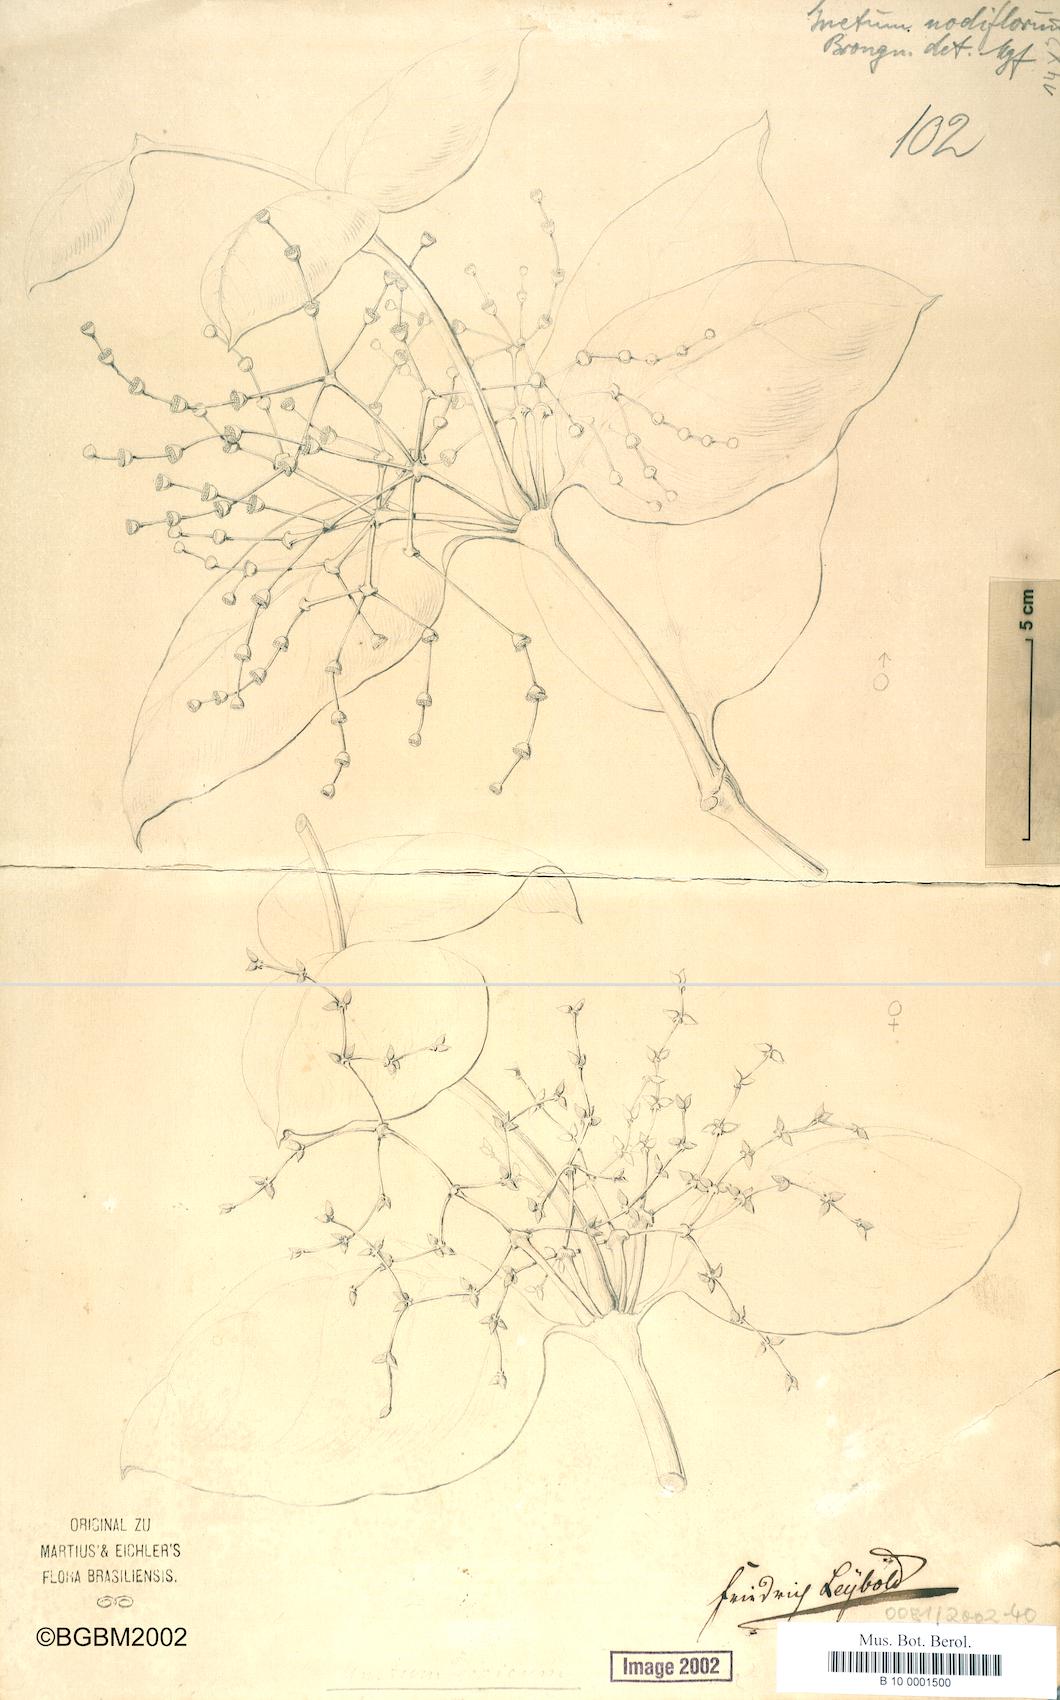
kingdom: Plantae
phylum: Tracheophyta
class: Gnetopsida
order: Gnetales
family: Gnetaceae
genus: Gnetum
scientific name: Gnetum nodiflorum
